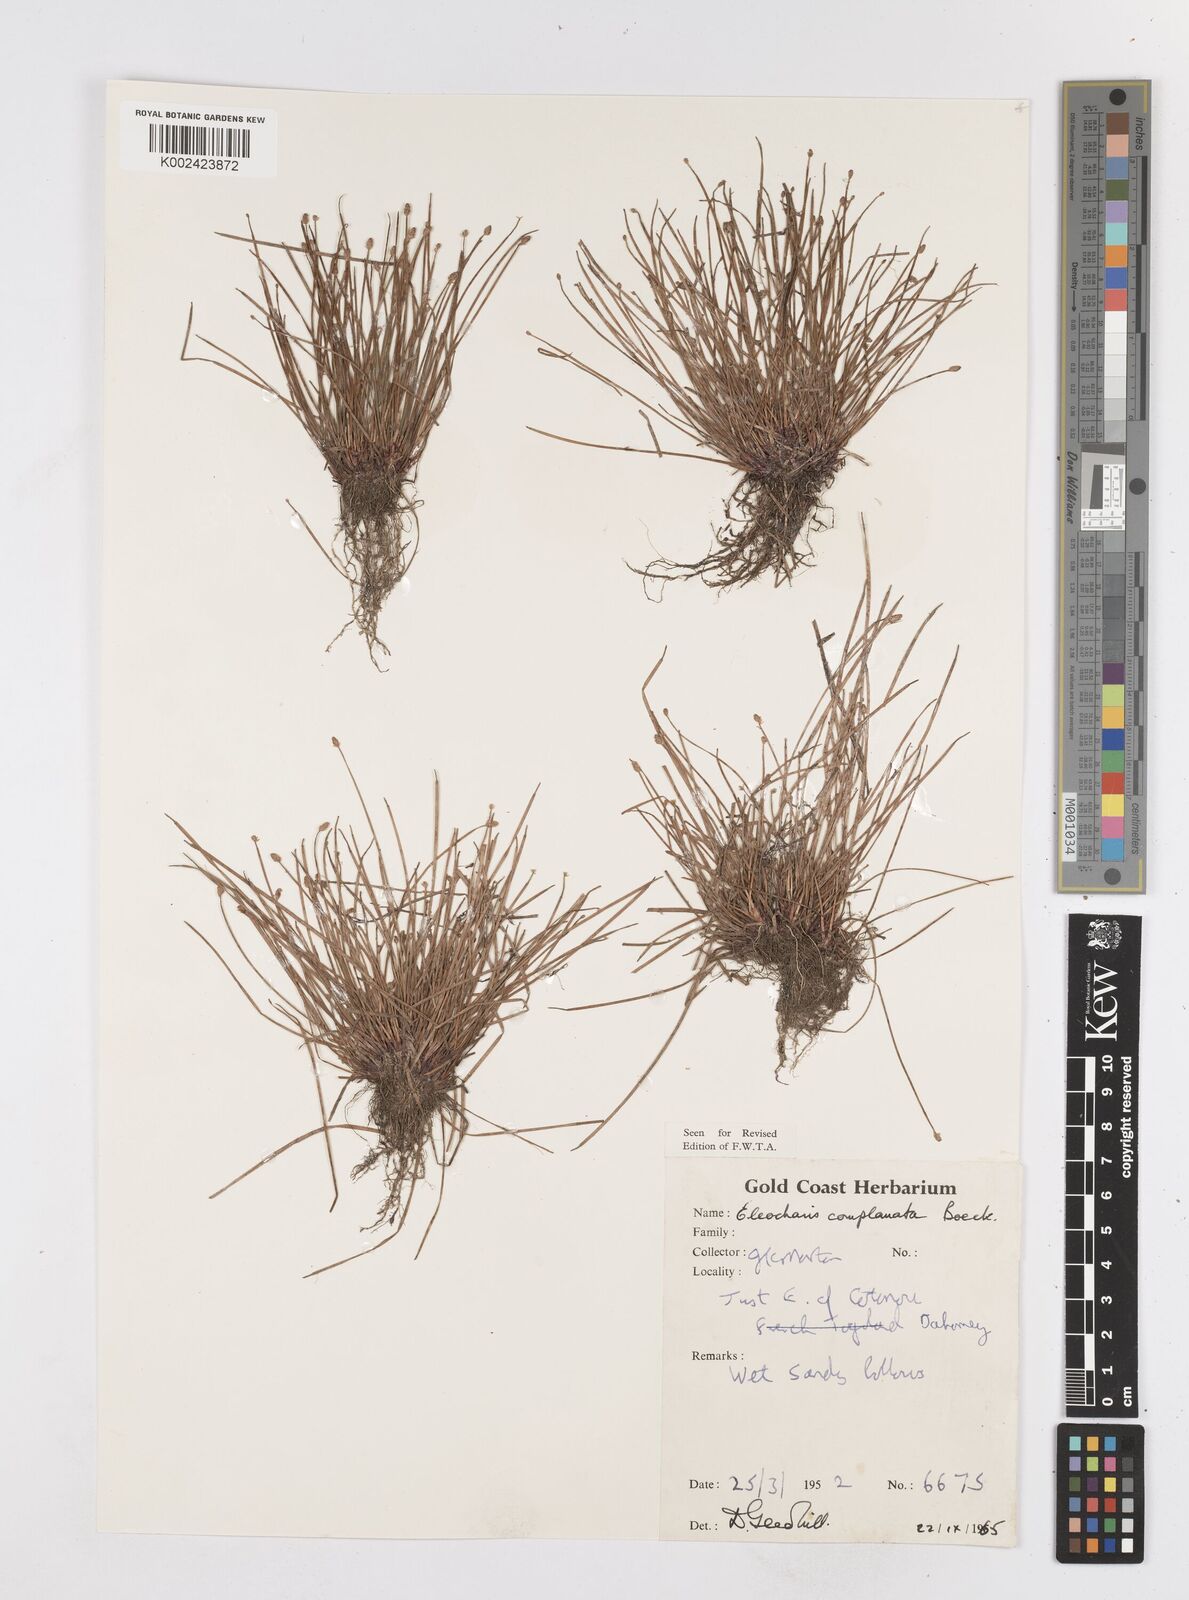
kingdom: Plantae
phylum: Tracheophyta
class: Liliopsida
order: Poales
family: Cyperaceae
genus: Eleocharis
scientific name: Eleocharis complanata
